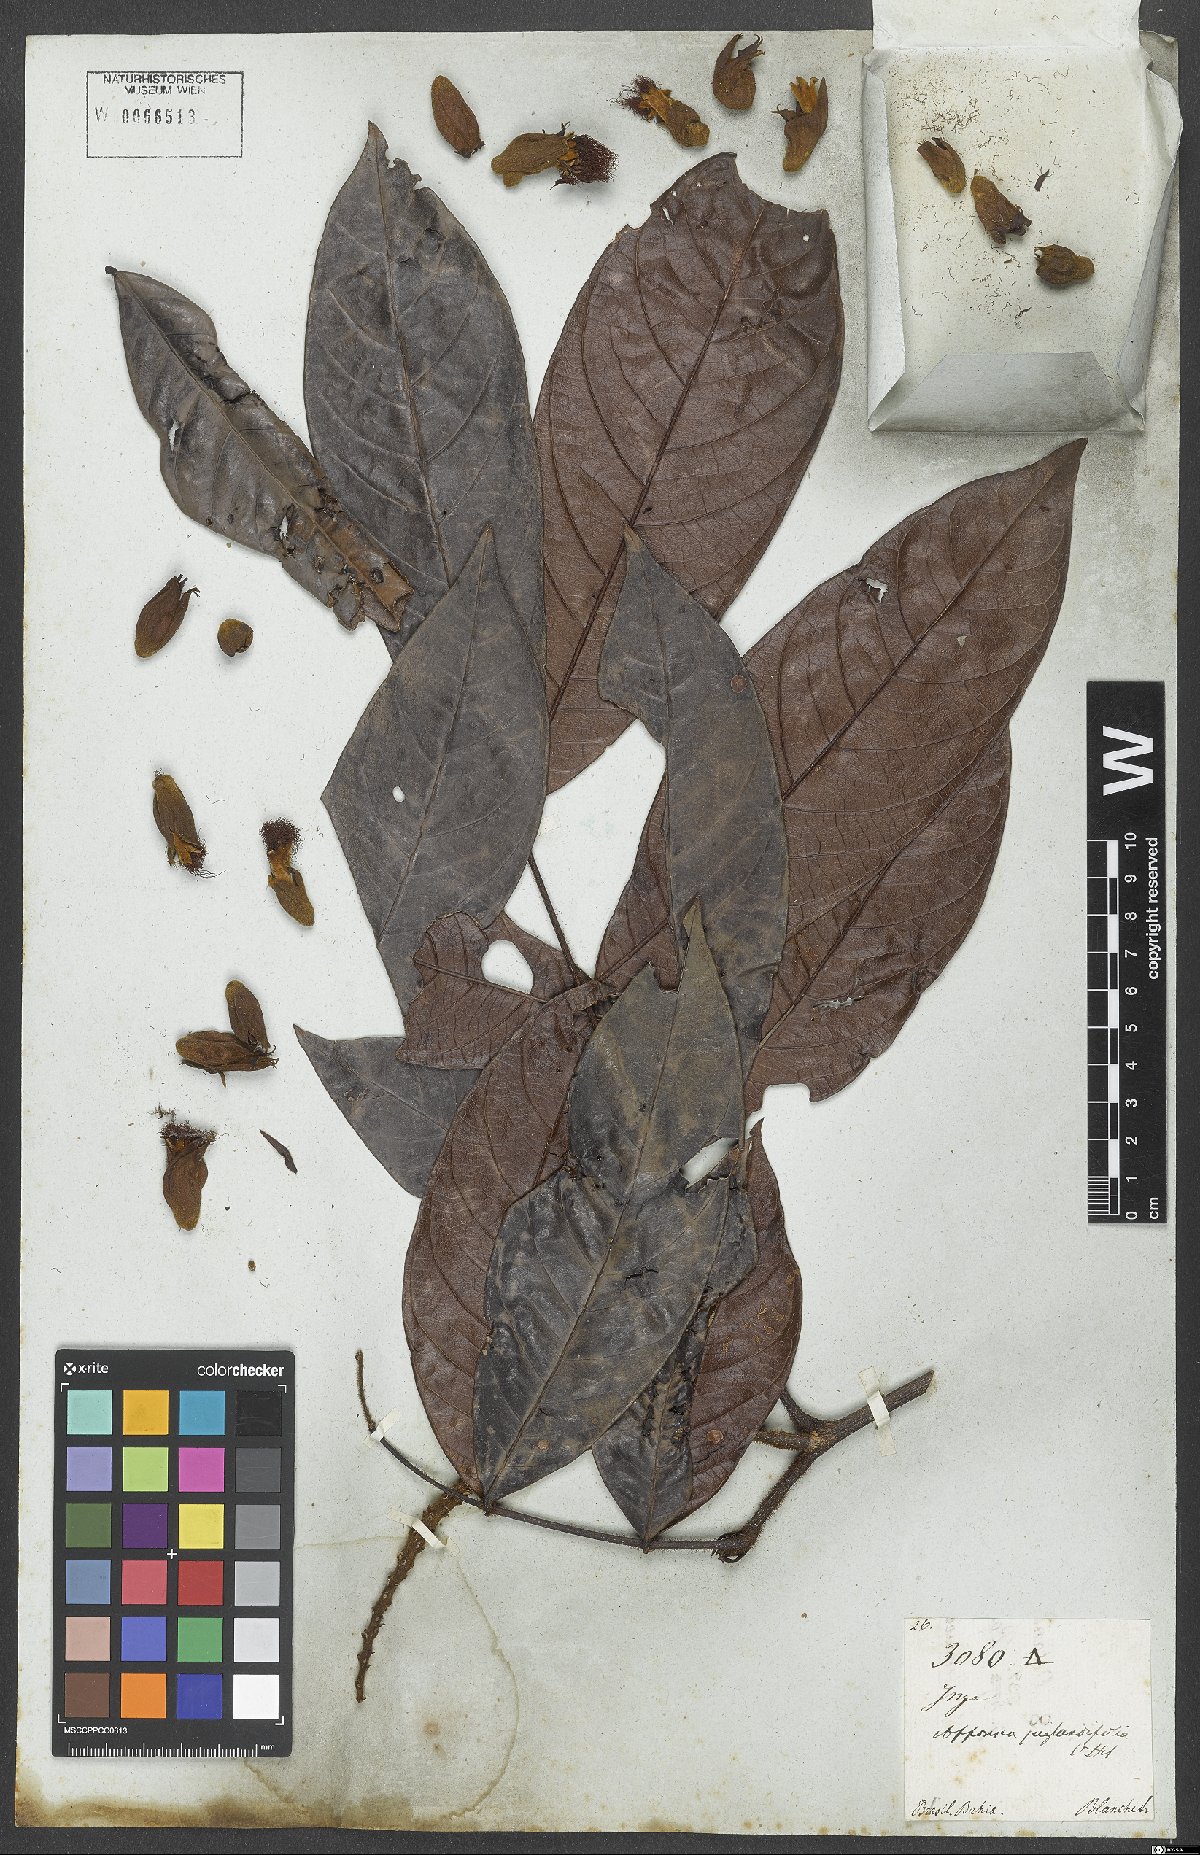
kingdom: Plantae
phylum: Tracheophyta
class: Magnoliopsida
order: Fabales
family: Fabaceae
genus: Inga
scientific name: Inga globularis
